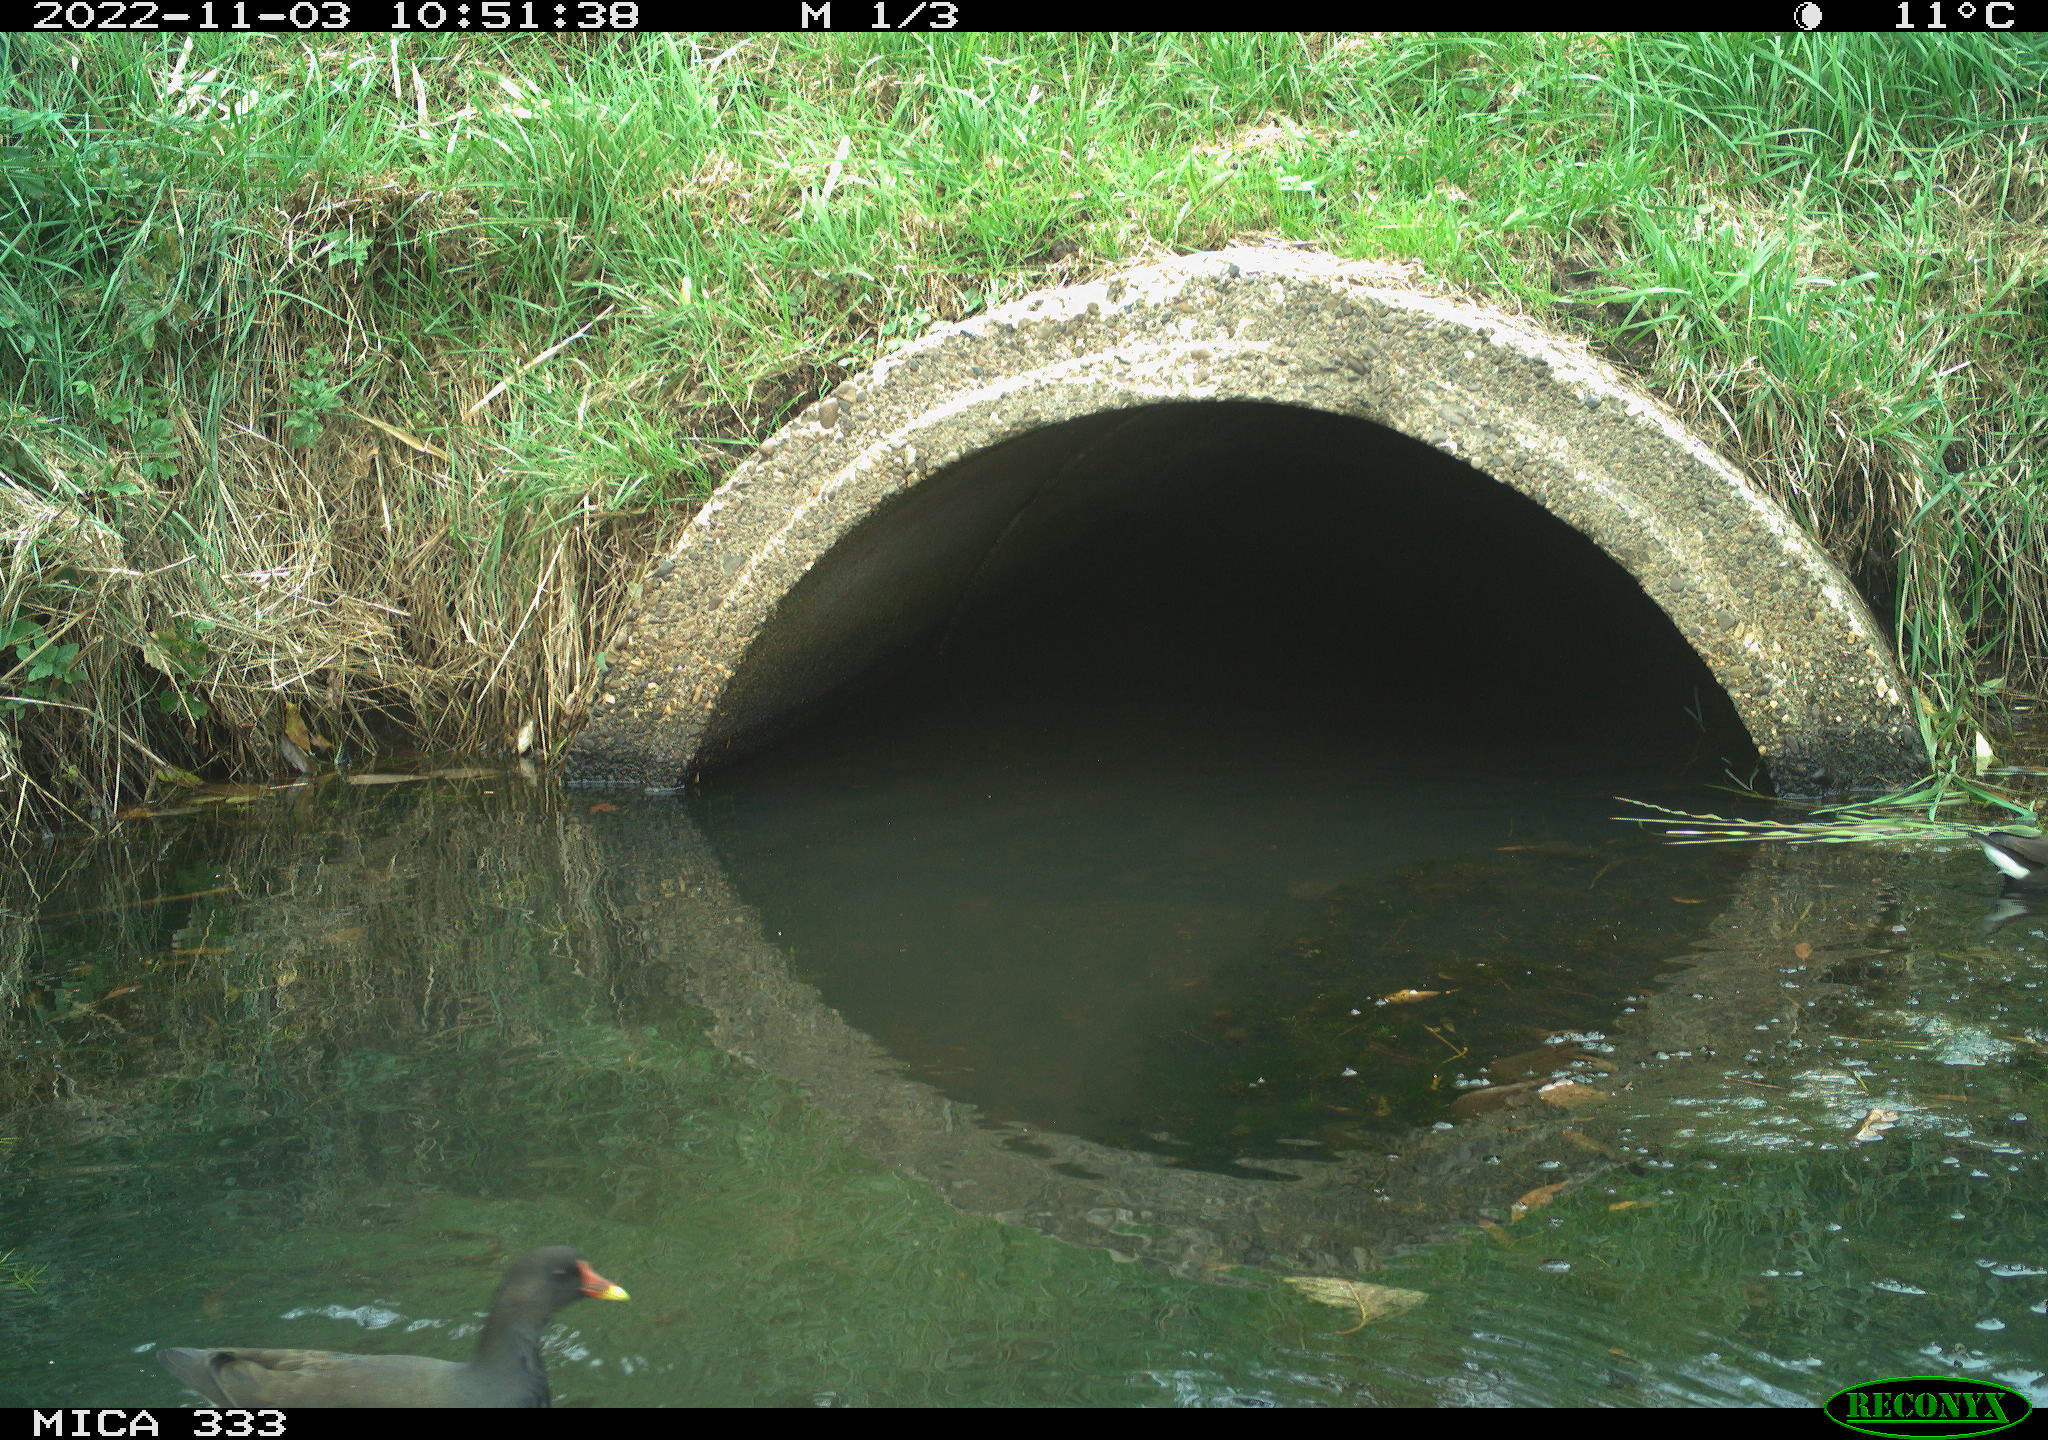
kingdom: Animalia
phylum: Chordata
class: Aves
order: Gruiformes
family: Rallidae
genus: Gallinula
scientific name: Gallinula chloropus
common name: Common moorhen
